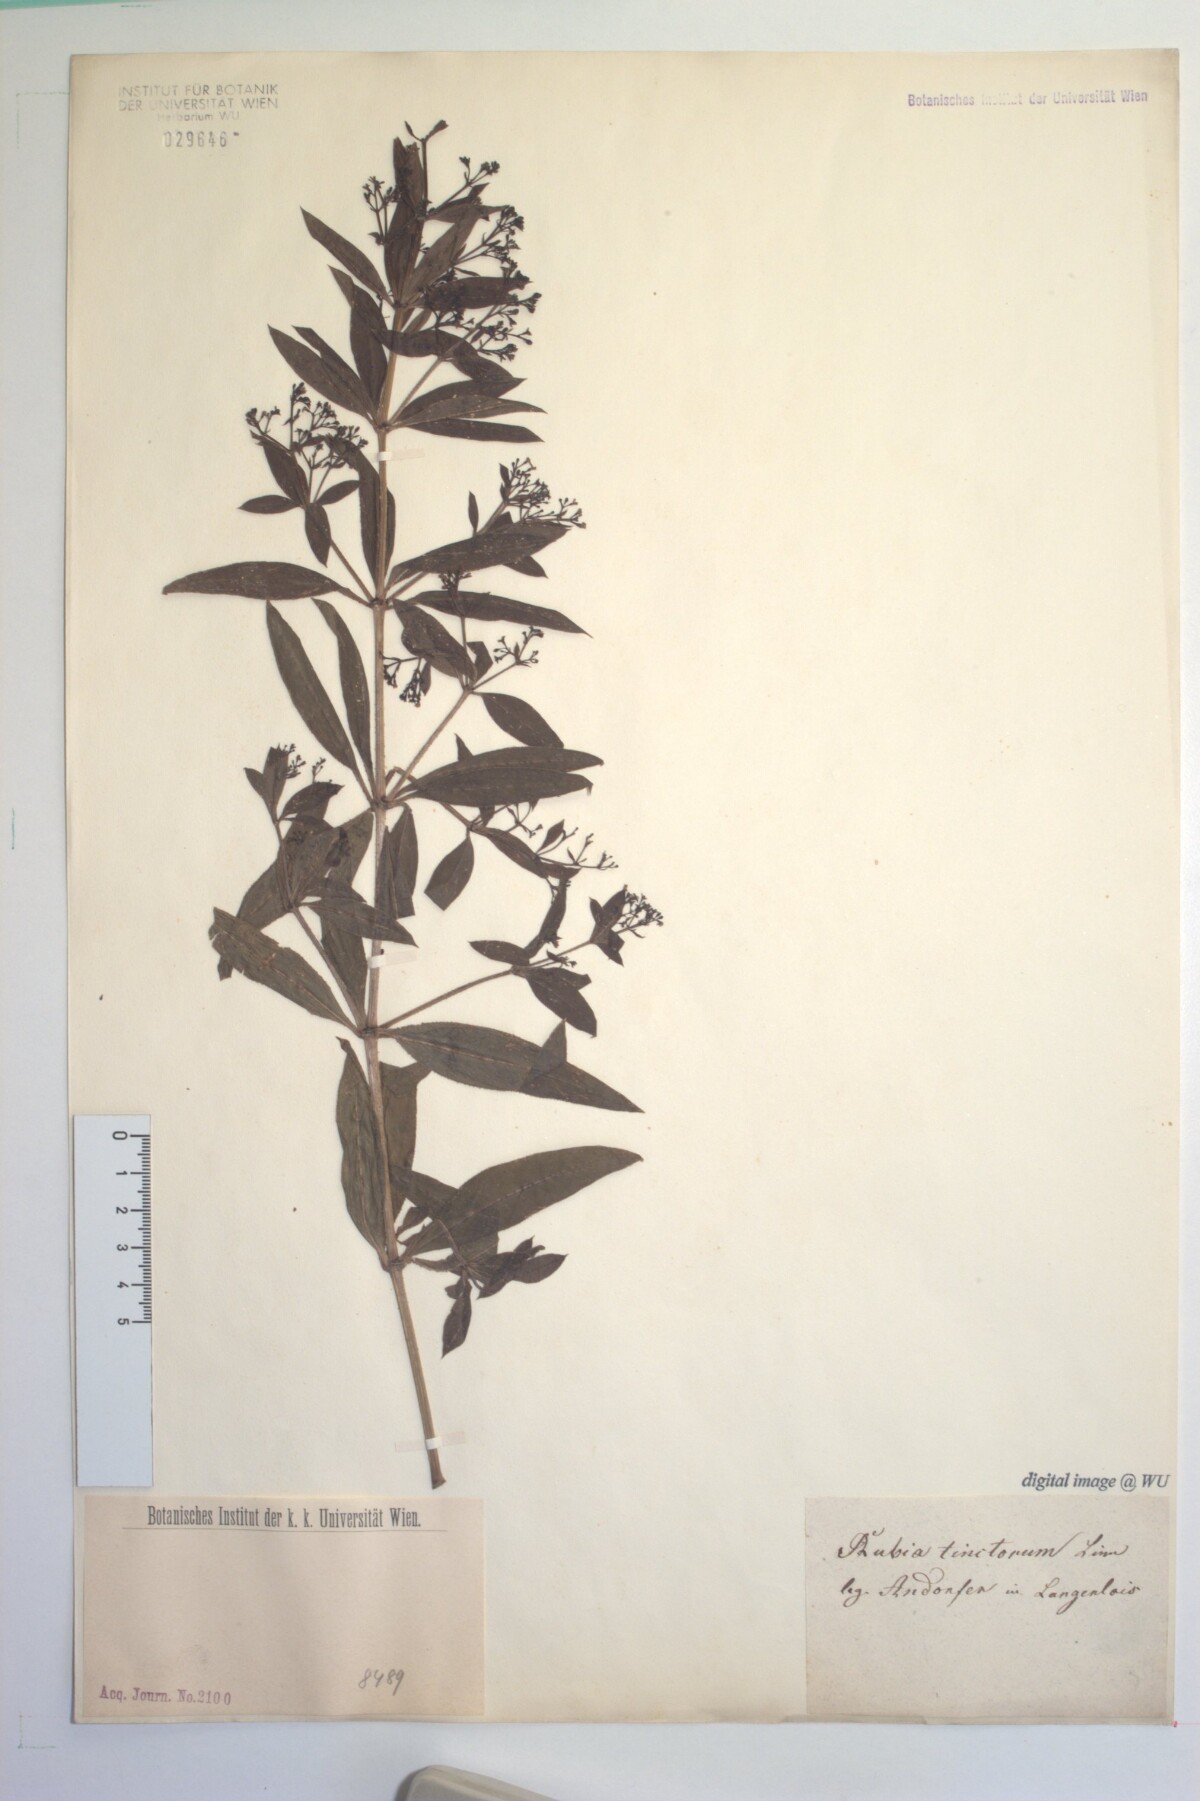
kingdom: Plantae
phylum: Tracheophyta
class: Magnoliopsida
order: Gentianales
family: Rubiaceae
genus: Rubia
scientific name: Rubia tinctorum
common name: Dyer's madder
